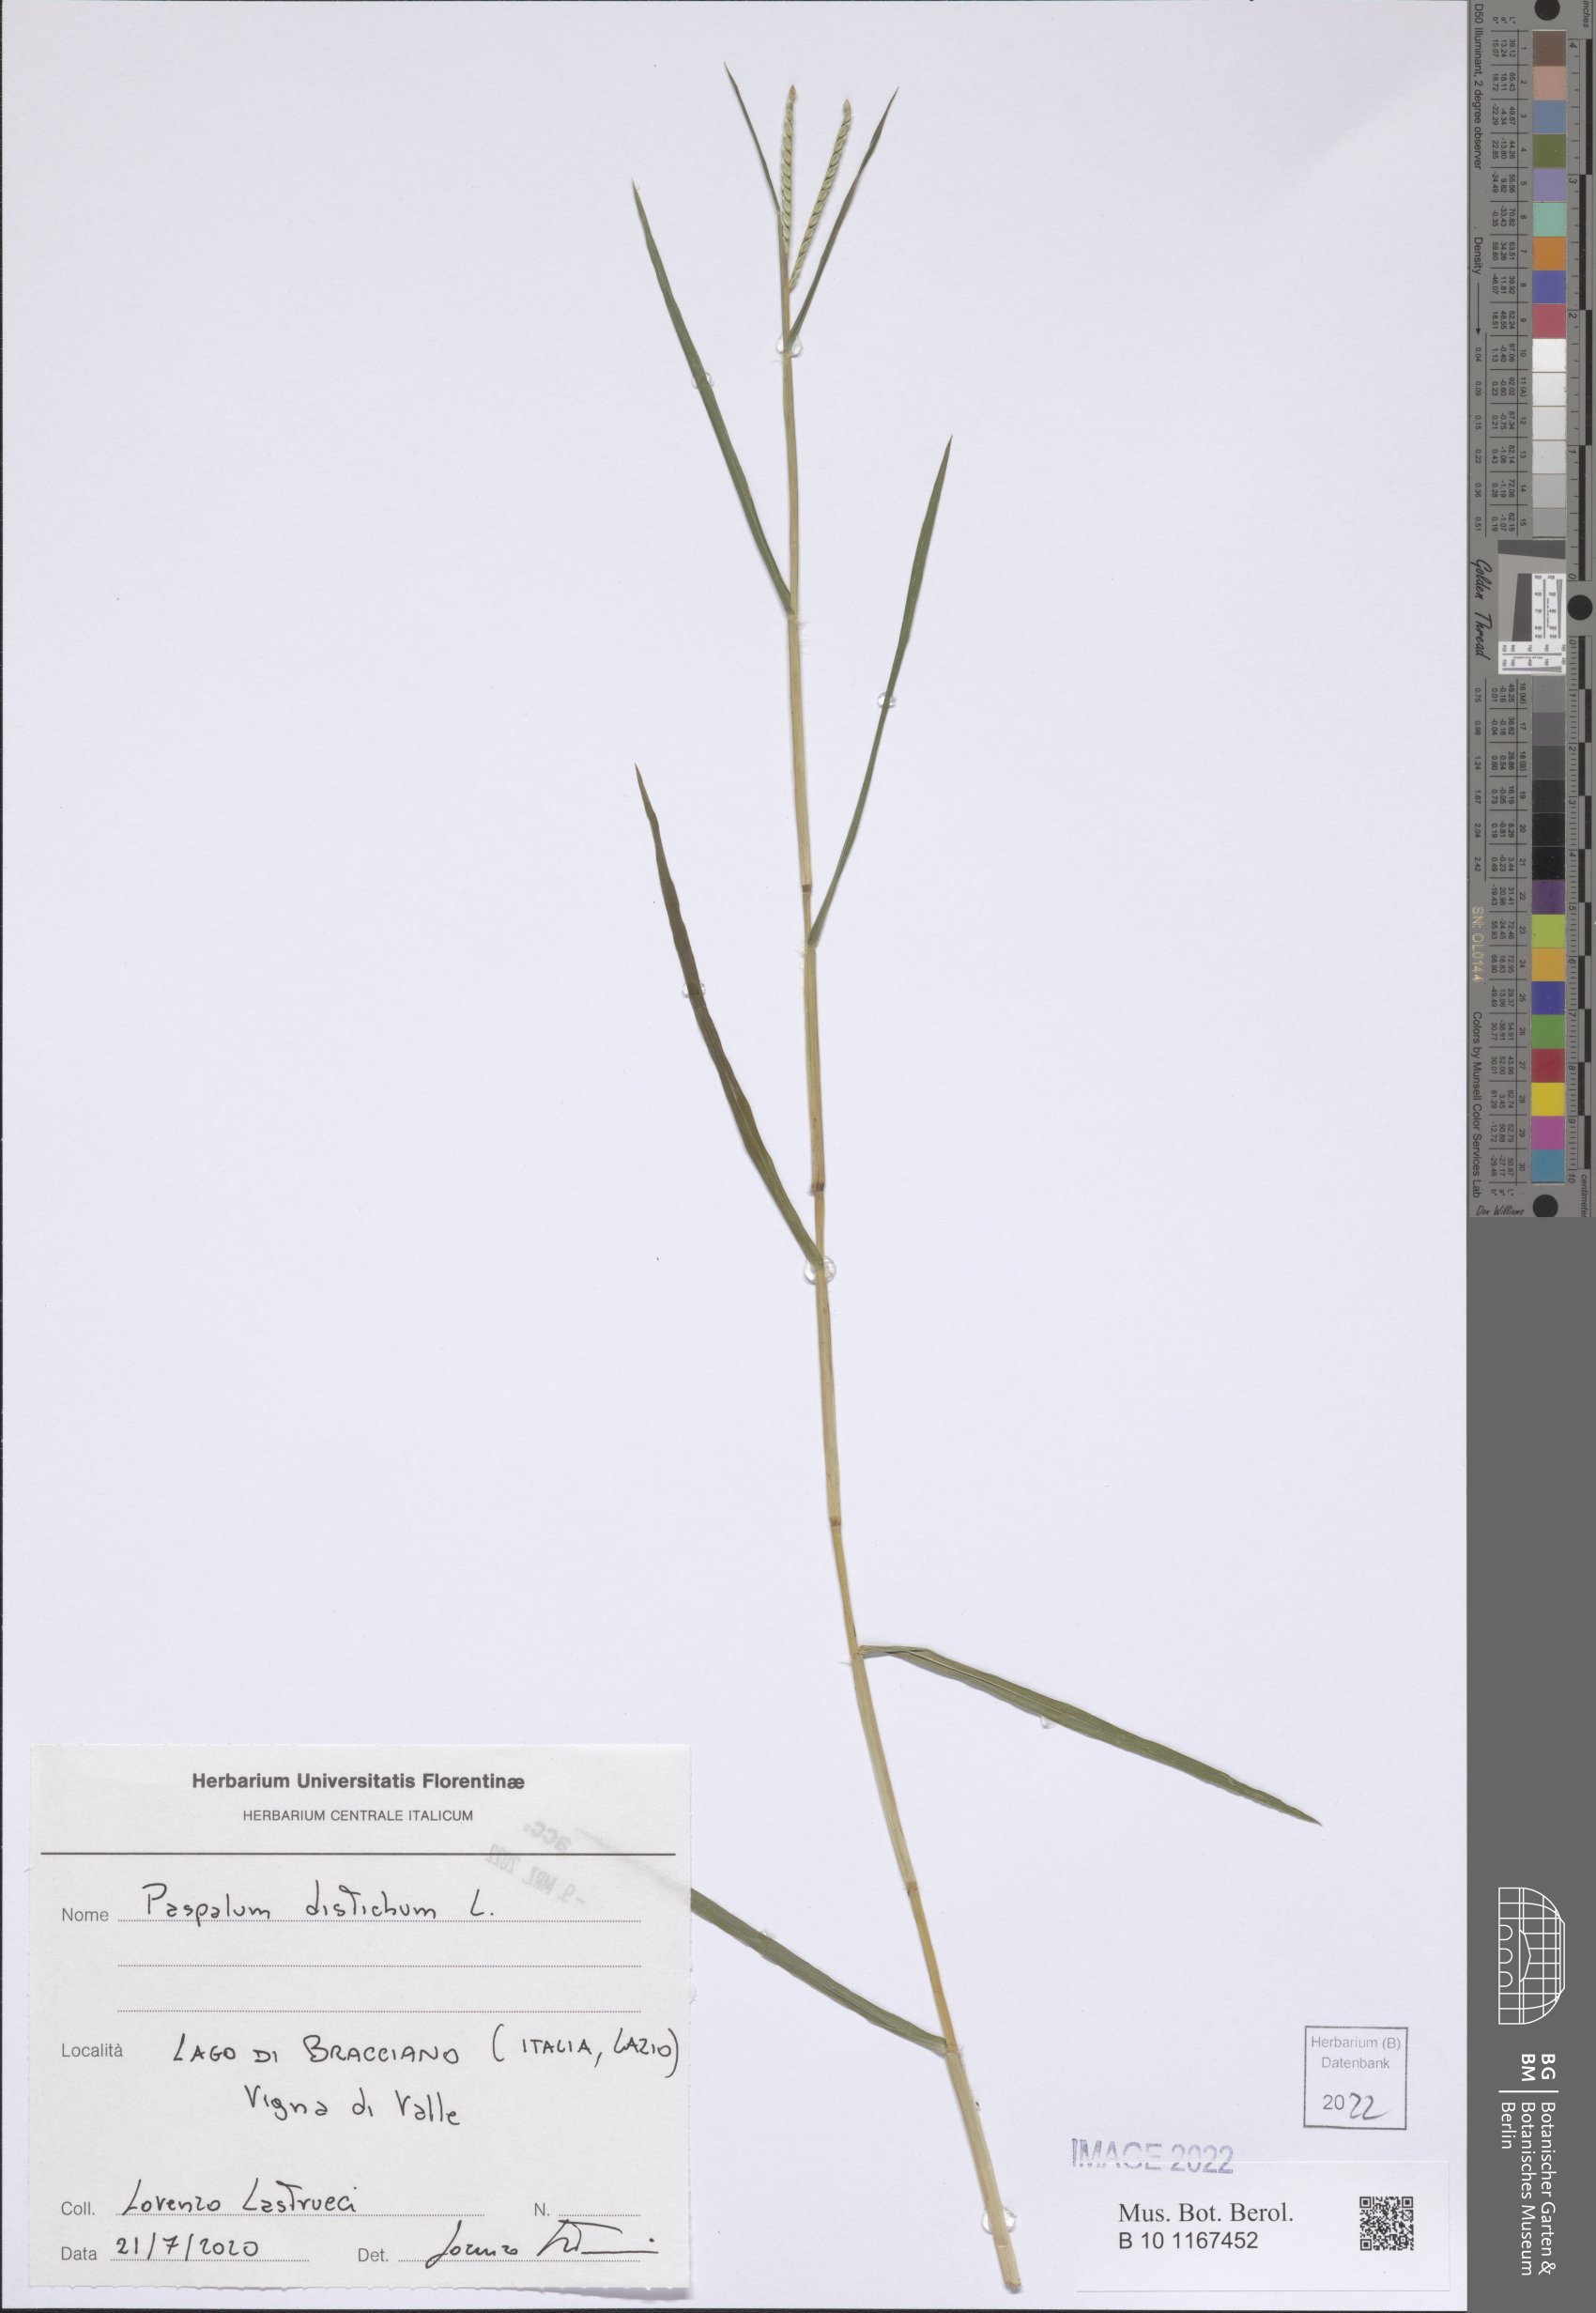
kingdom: Plantae
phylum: Tracheophyta
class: Liliopsida
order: Poales
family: Poaceae
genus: Paspalum
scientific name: Paspalum distichum
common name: Knotgrass
